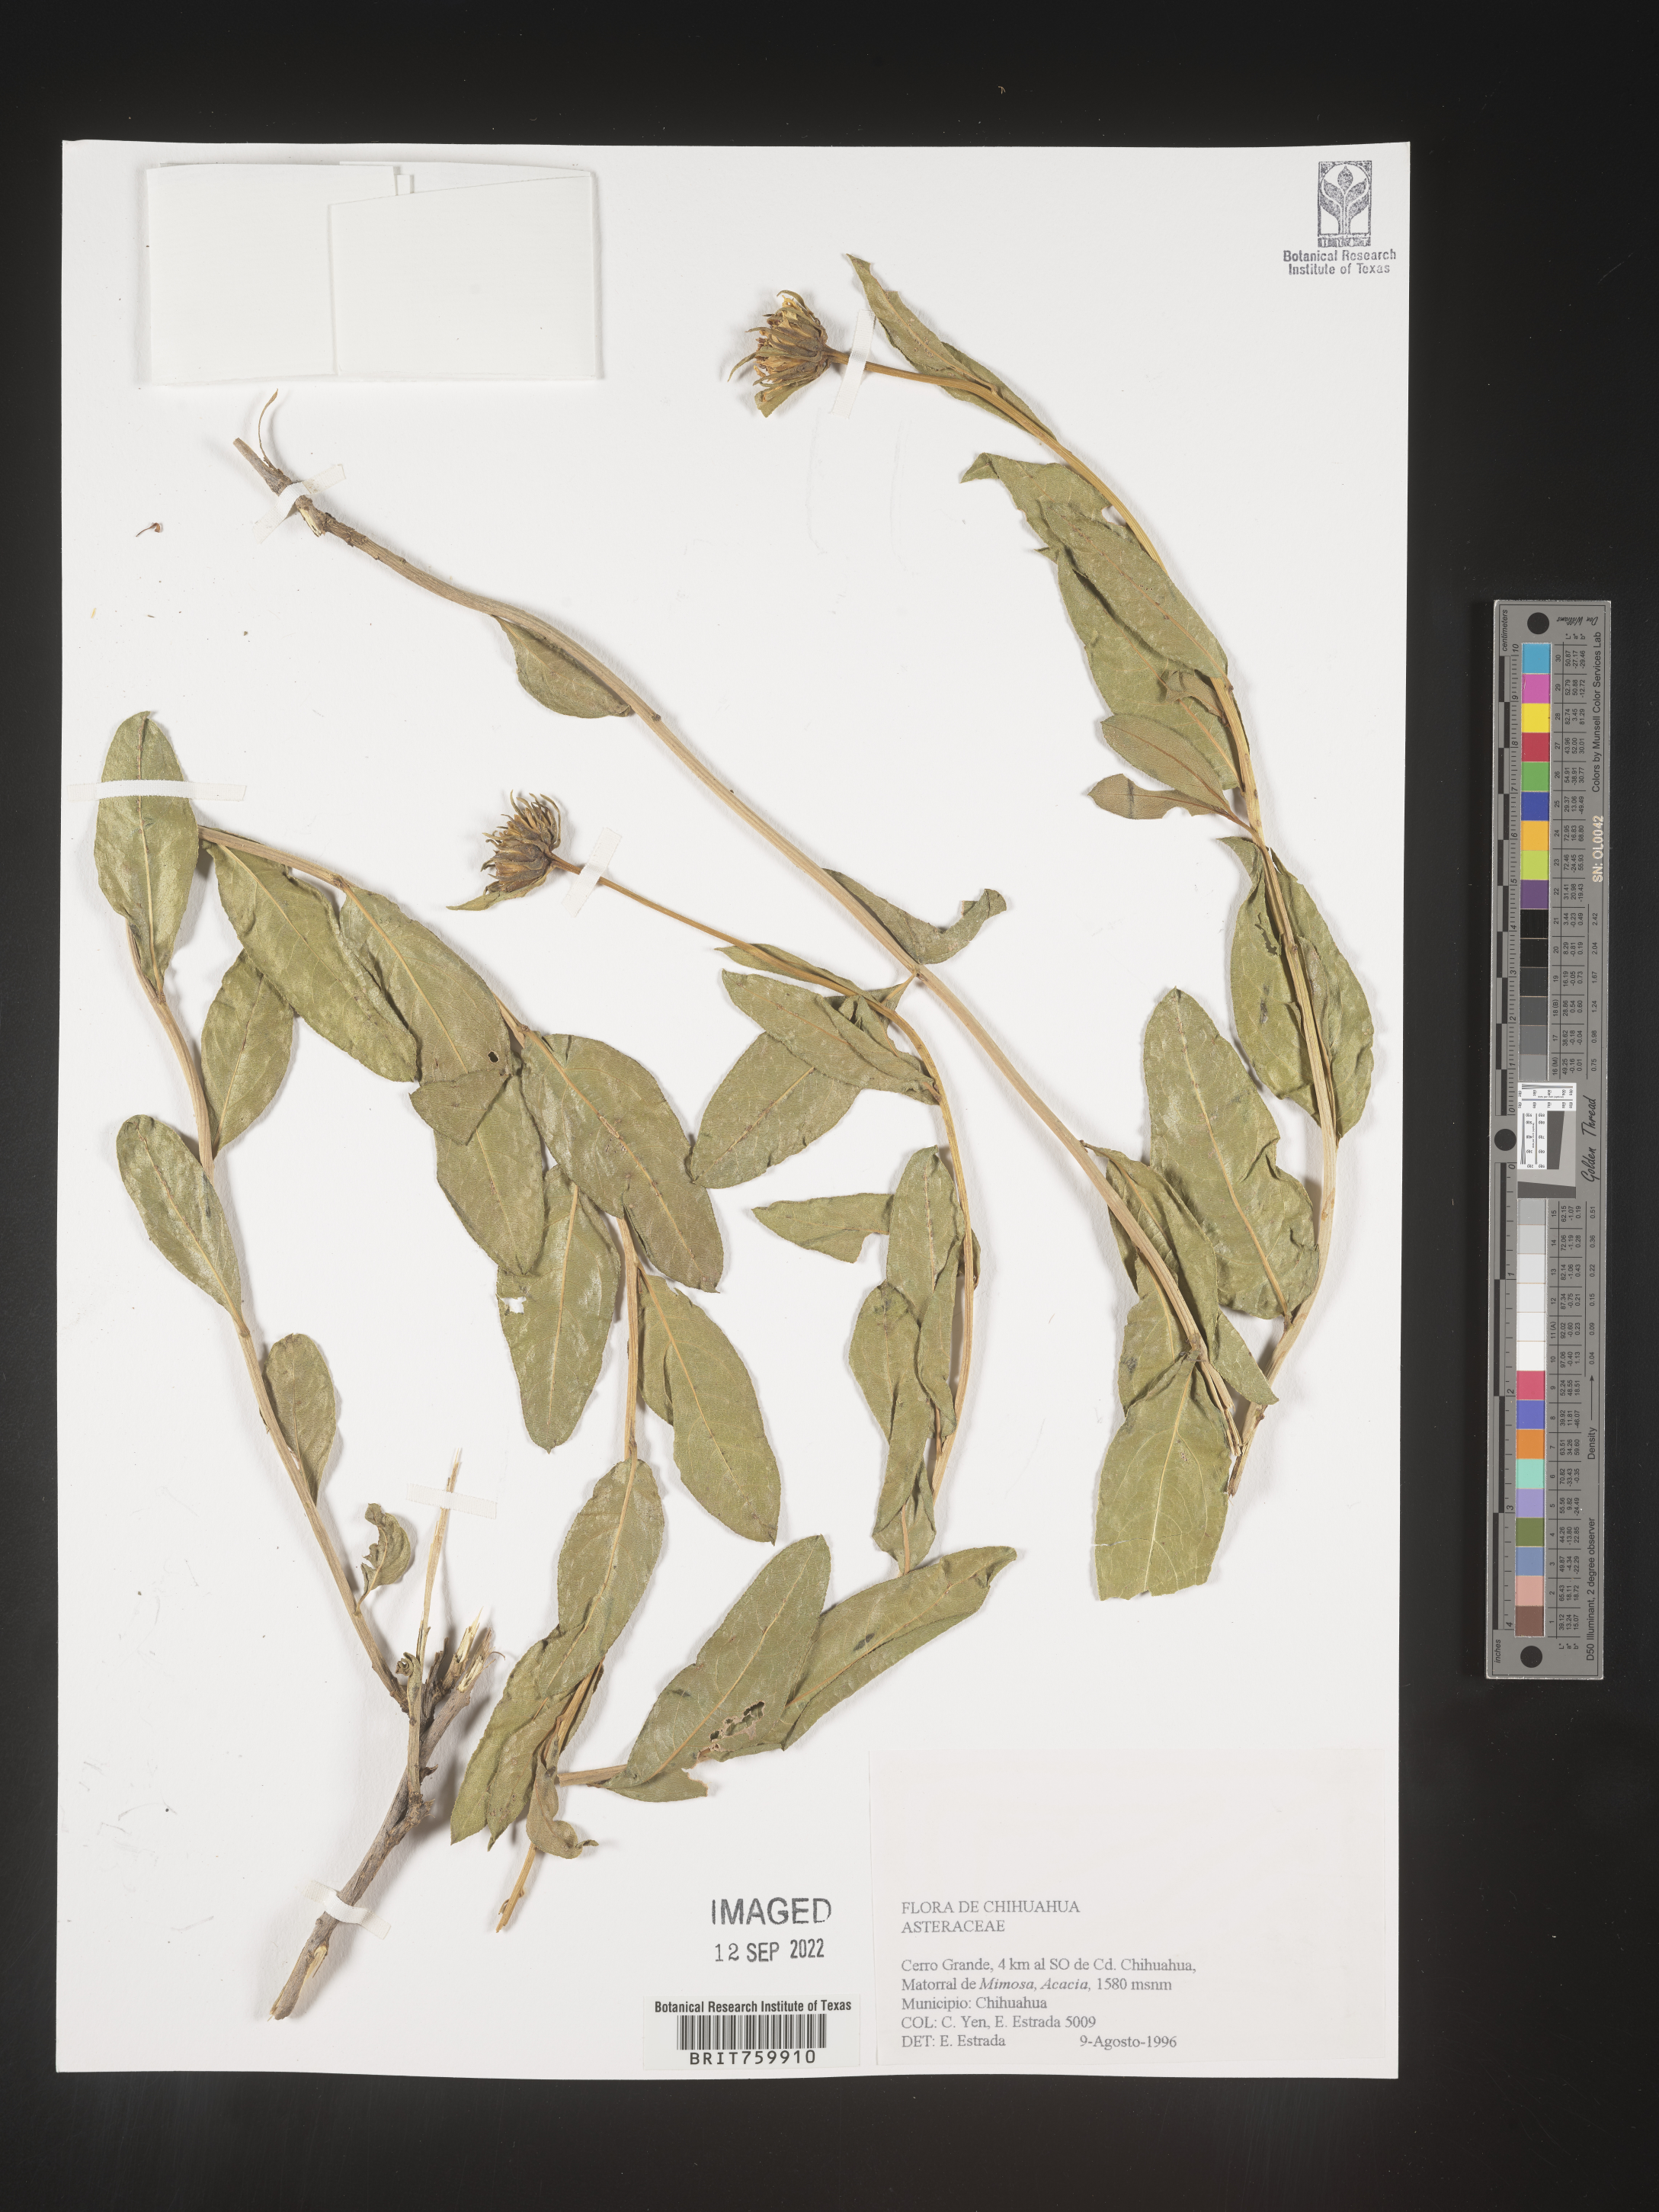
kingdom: Plantae
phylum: Tracheophyta
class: Magnoliopsida
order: Asterales
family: Asteraceae
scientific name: Asteraceae
